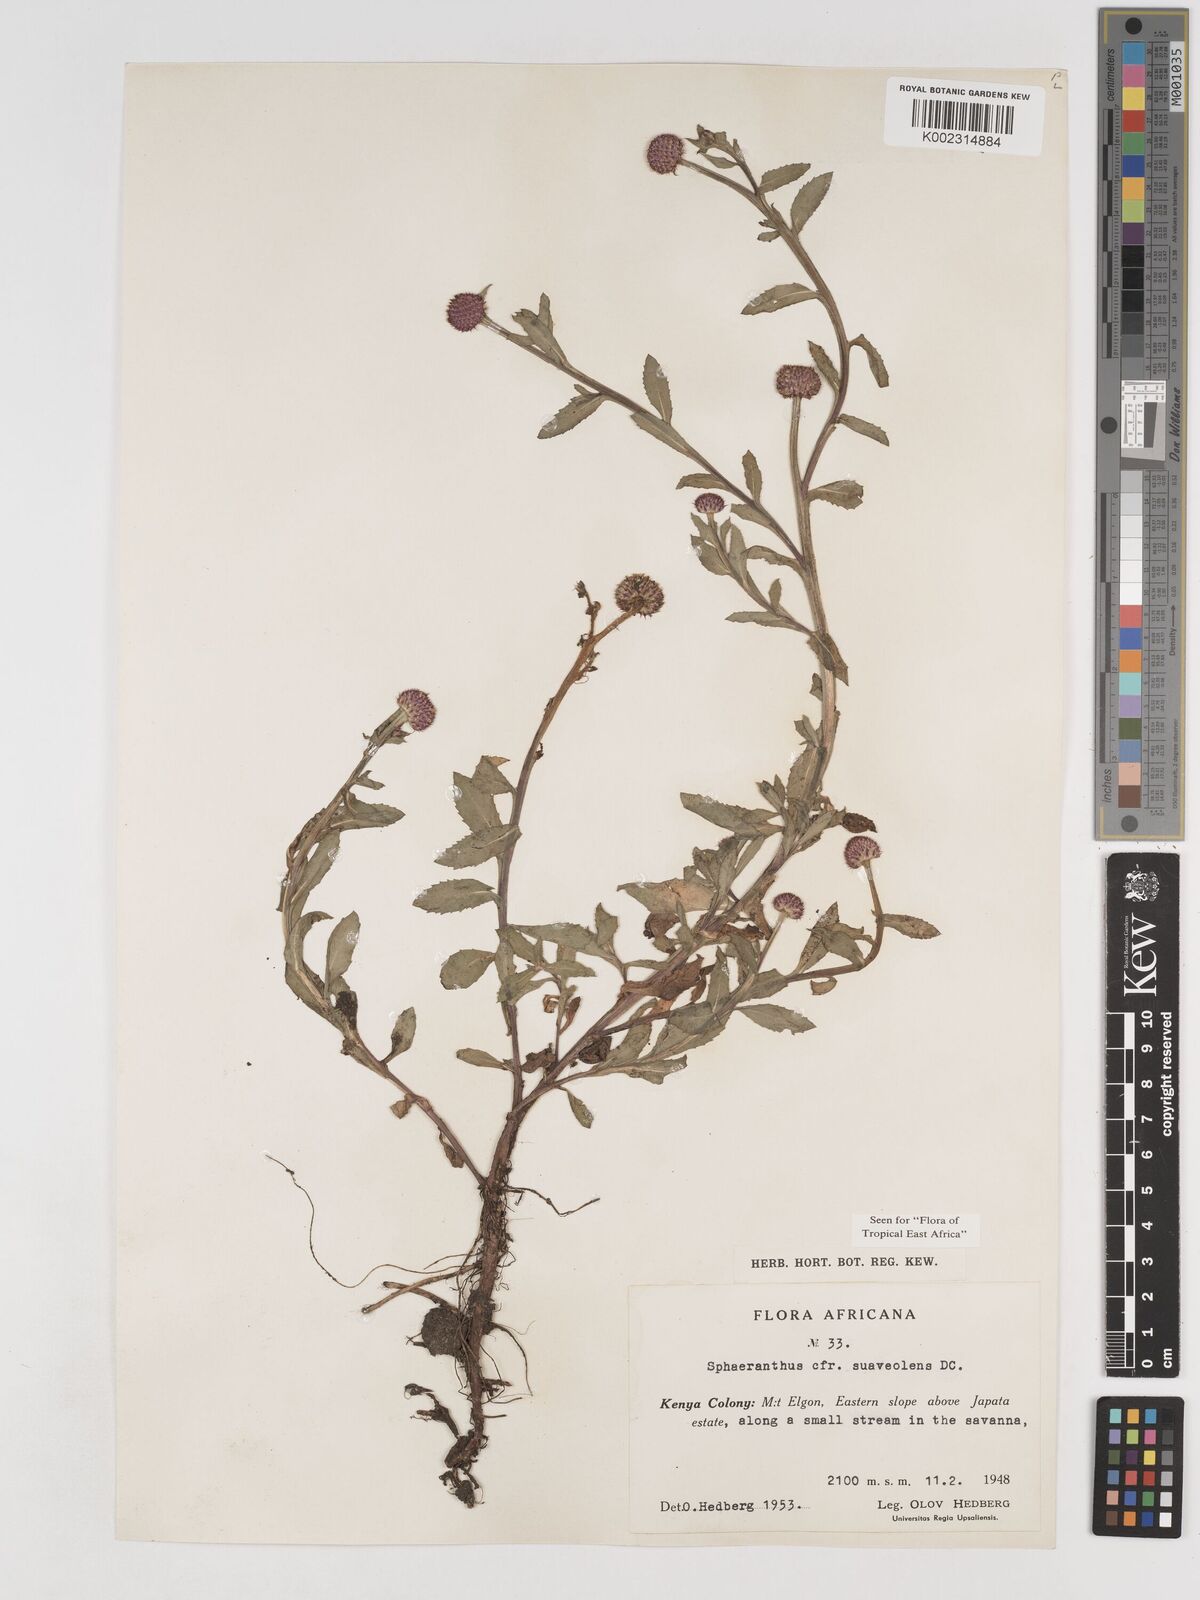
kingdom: Plantae
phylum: Tracheophyta
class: Magnoliopsida
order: Asterales
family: Asteraceae
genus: Sphaeranthus
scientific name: Sphaeranthus suaveolens
